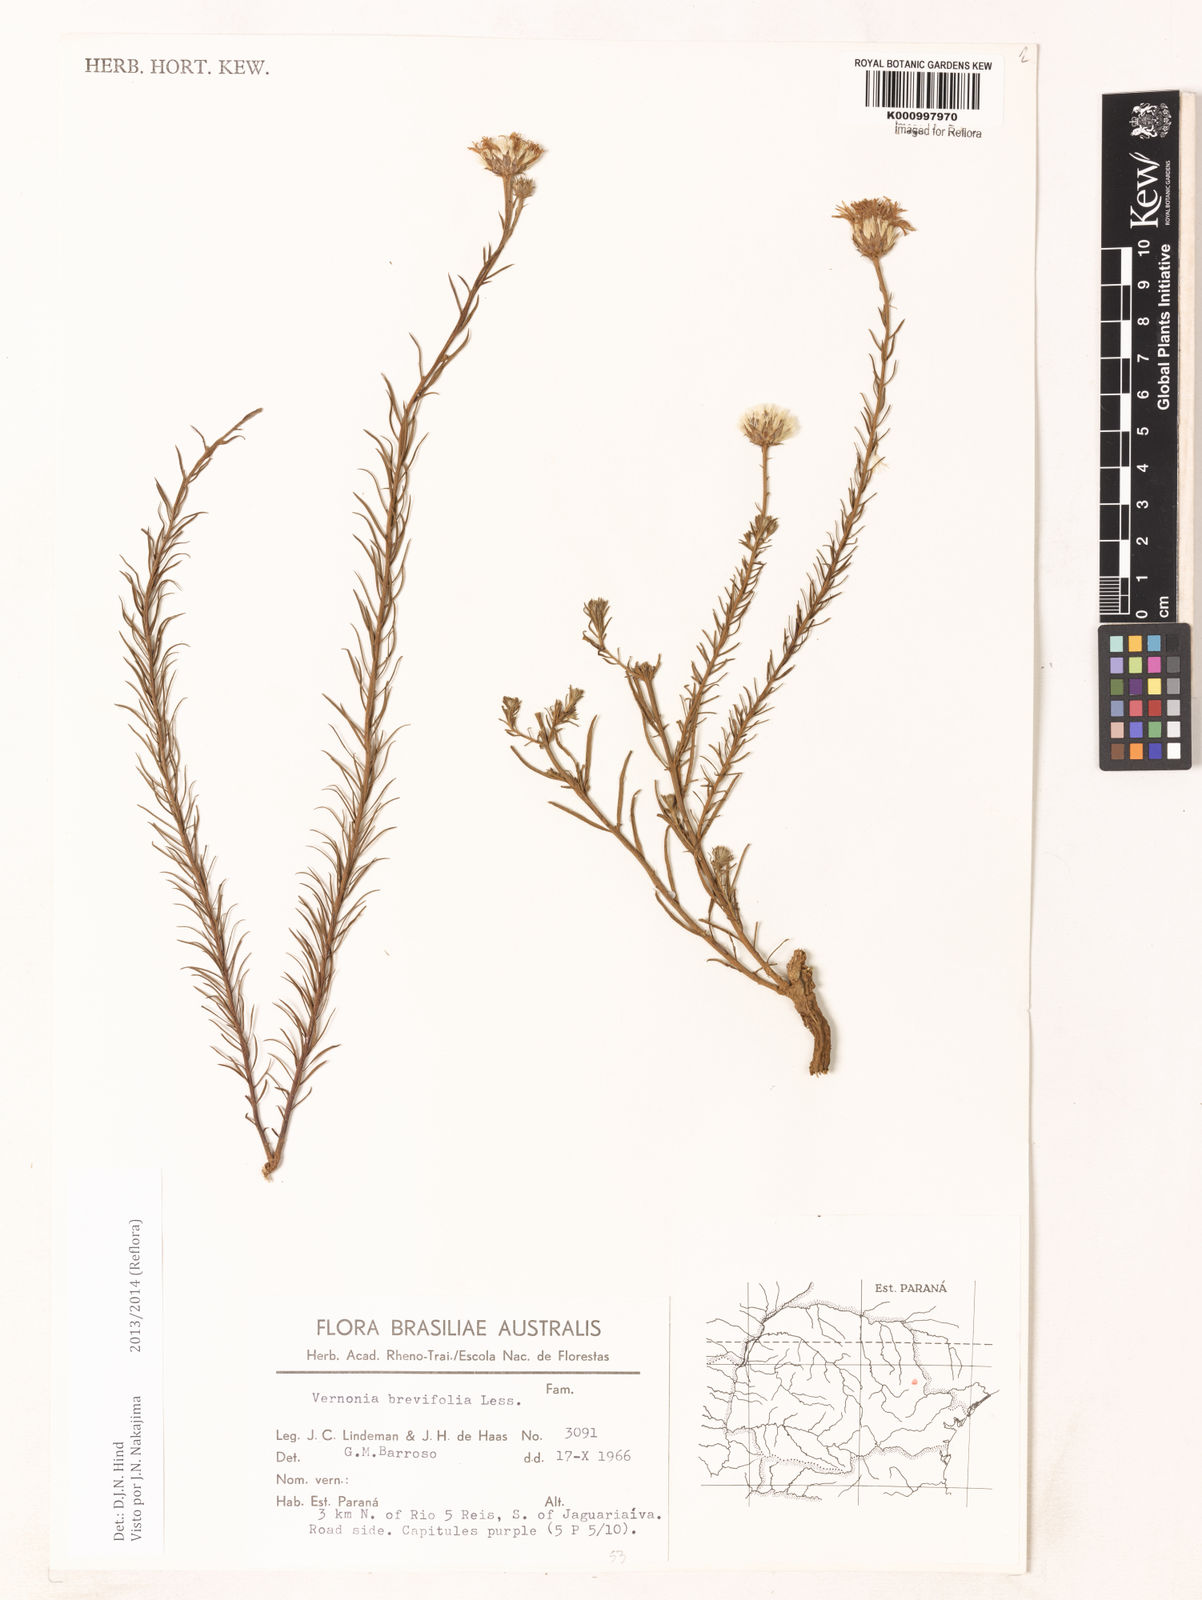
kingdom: Plantae
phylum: Tracheophyta
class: Magnoliopsida
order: Asterales
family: Asteraceae
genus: Lessingianthus
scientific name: Lessingianthus brevifolius
